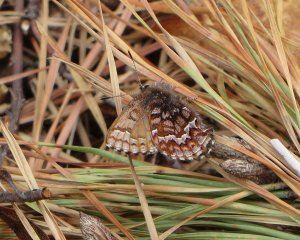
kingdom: Animalia
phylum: Arthropoda
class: Insecta
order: Lepidoptera
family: Lycaenidae
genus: Incisalia
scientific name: Incisalia niphon
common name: Eastern Pine Elfin
